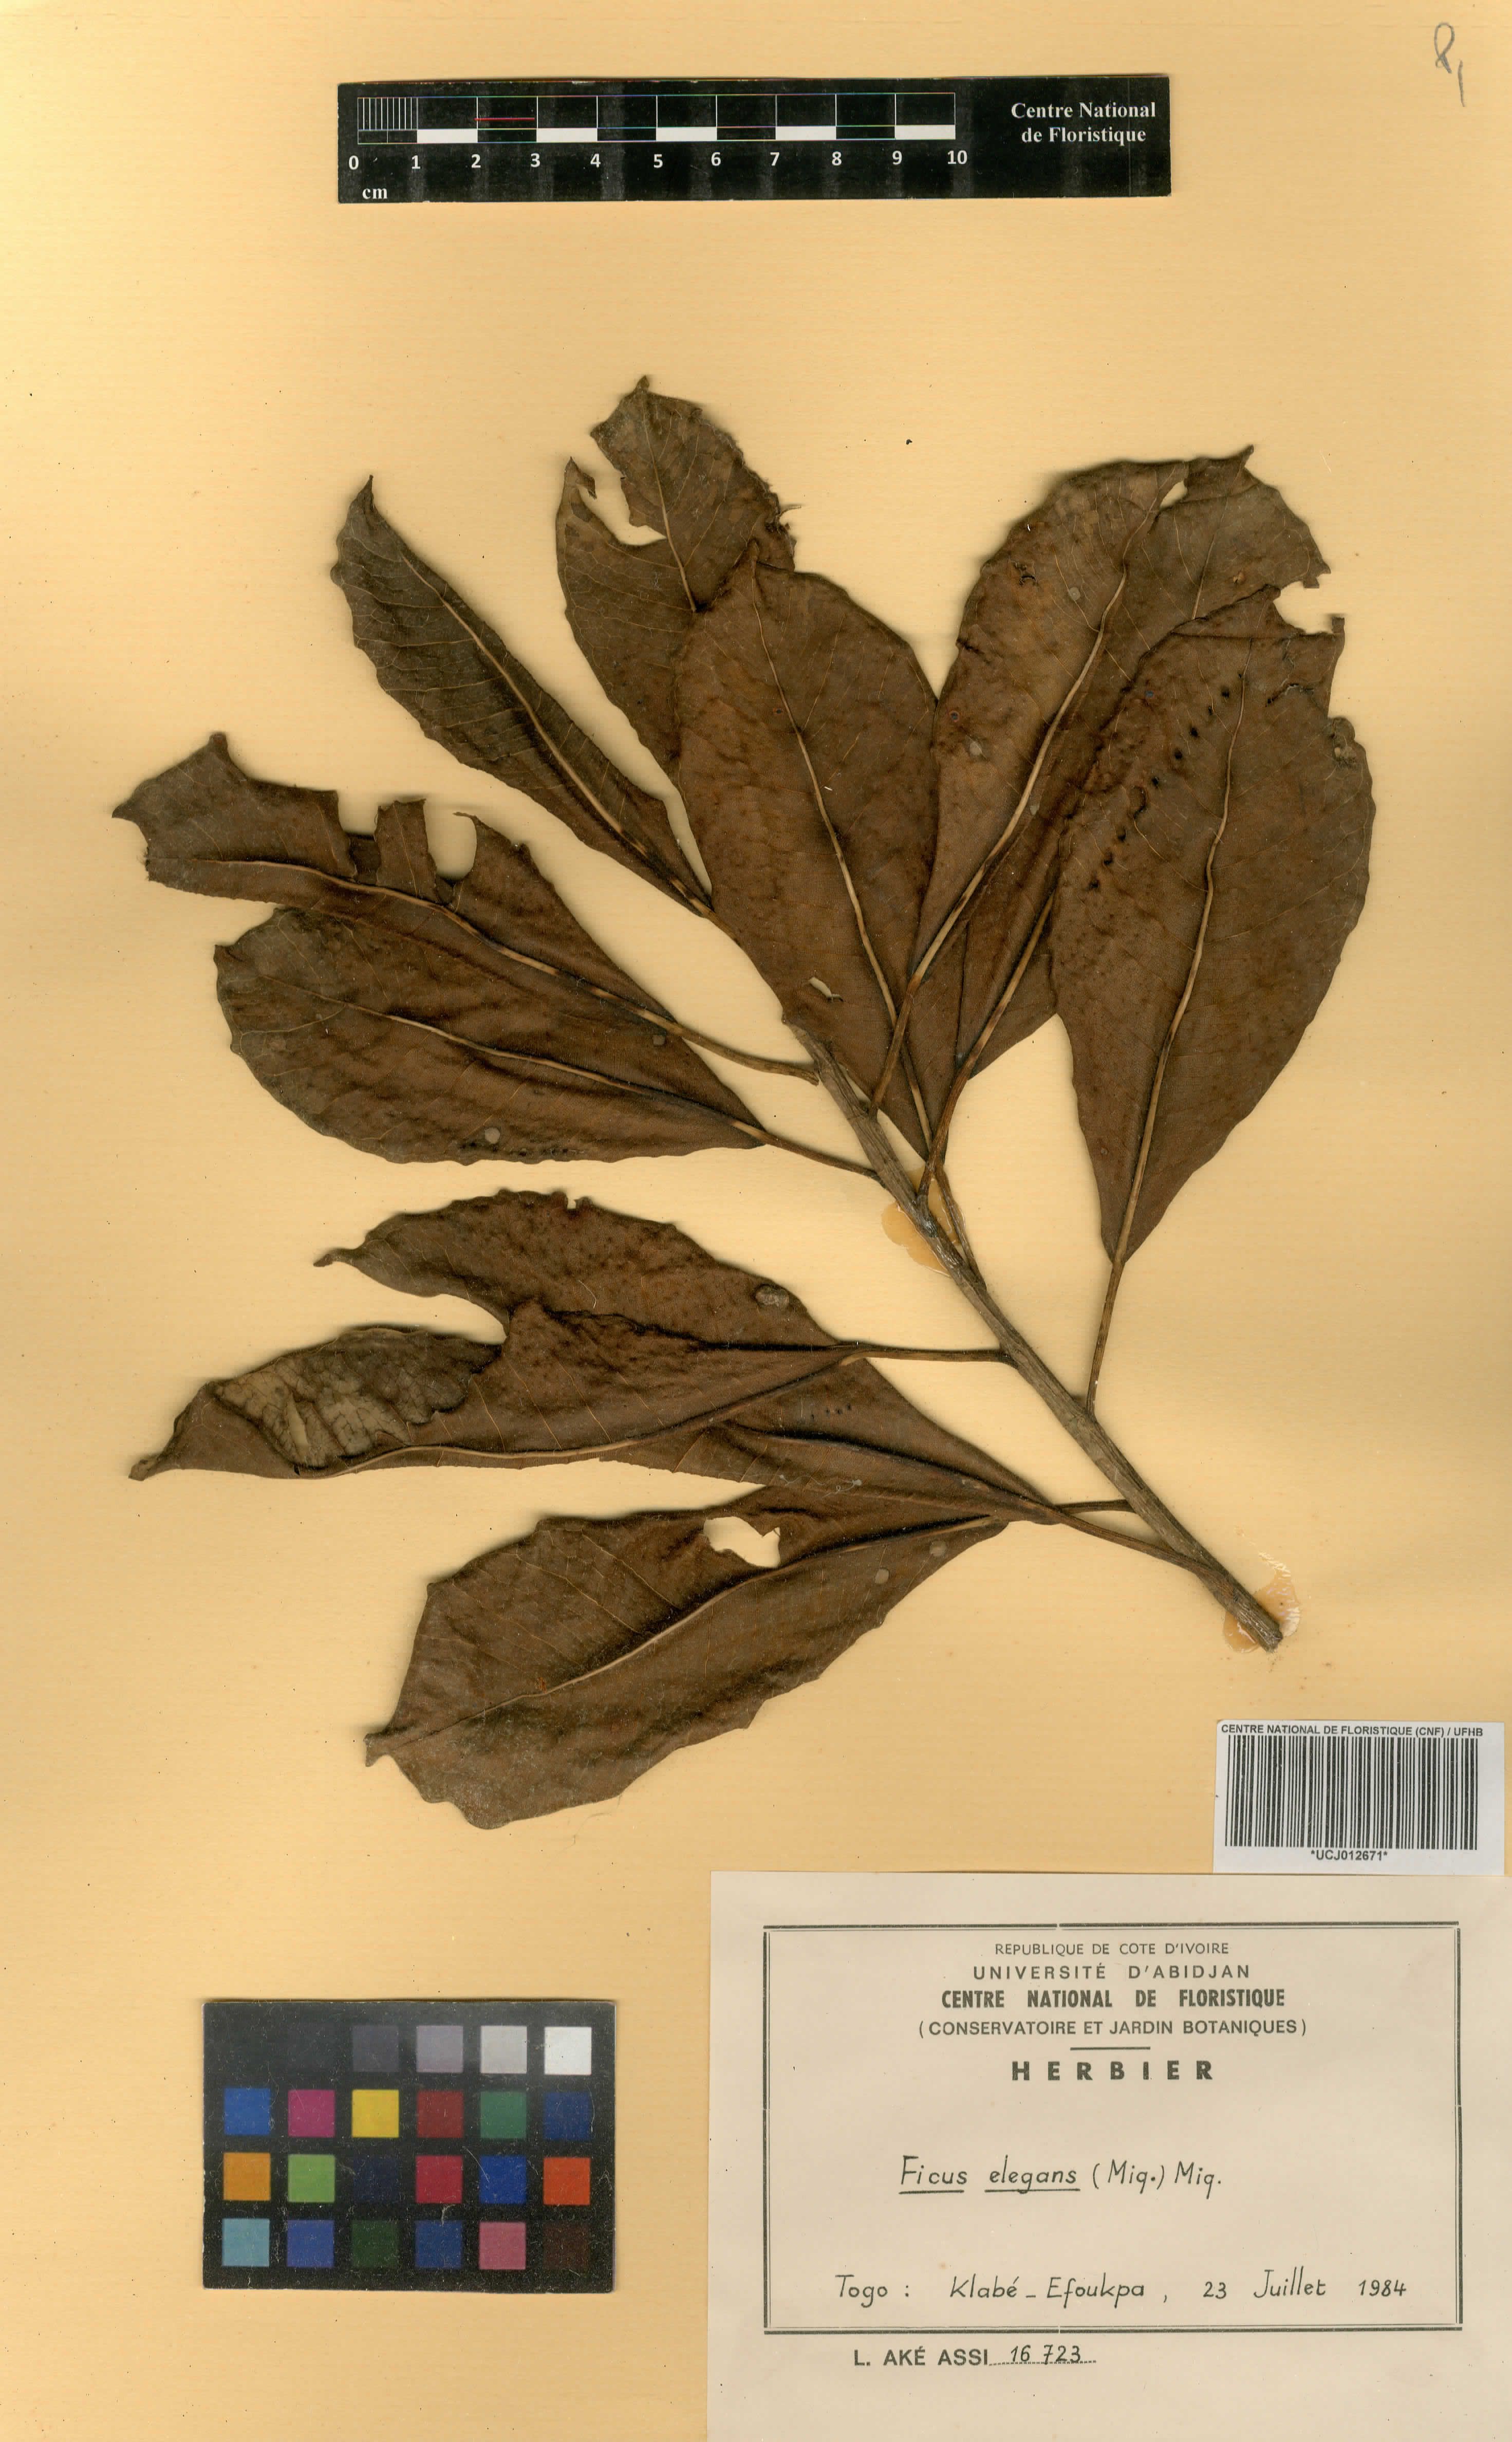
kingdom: Plantae
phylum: Tracheophyta
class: Magnoliopsida
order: Rosales
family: Moraceae
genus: Ficus
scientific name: Ficus
